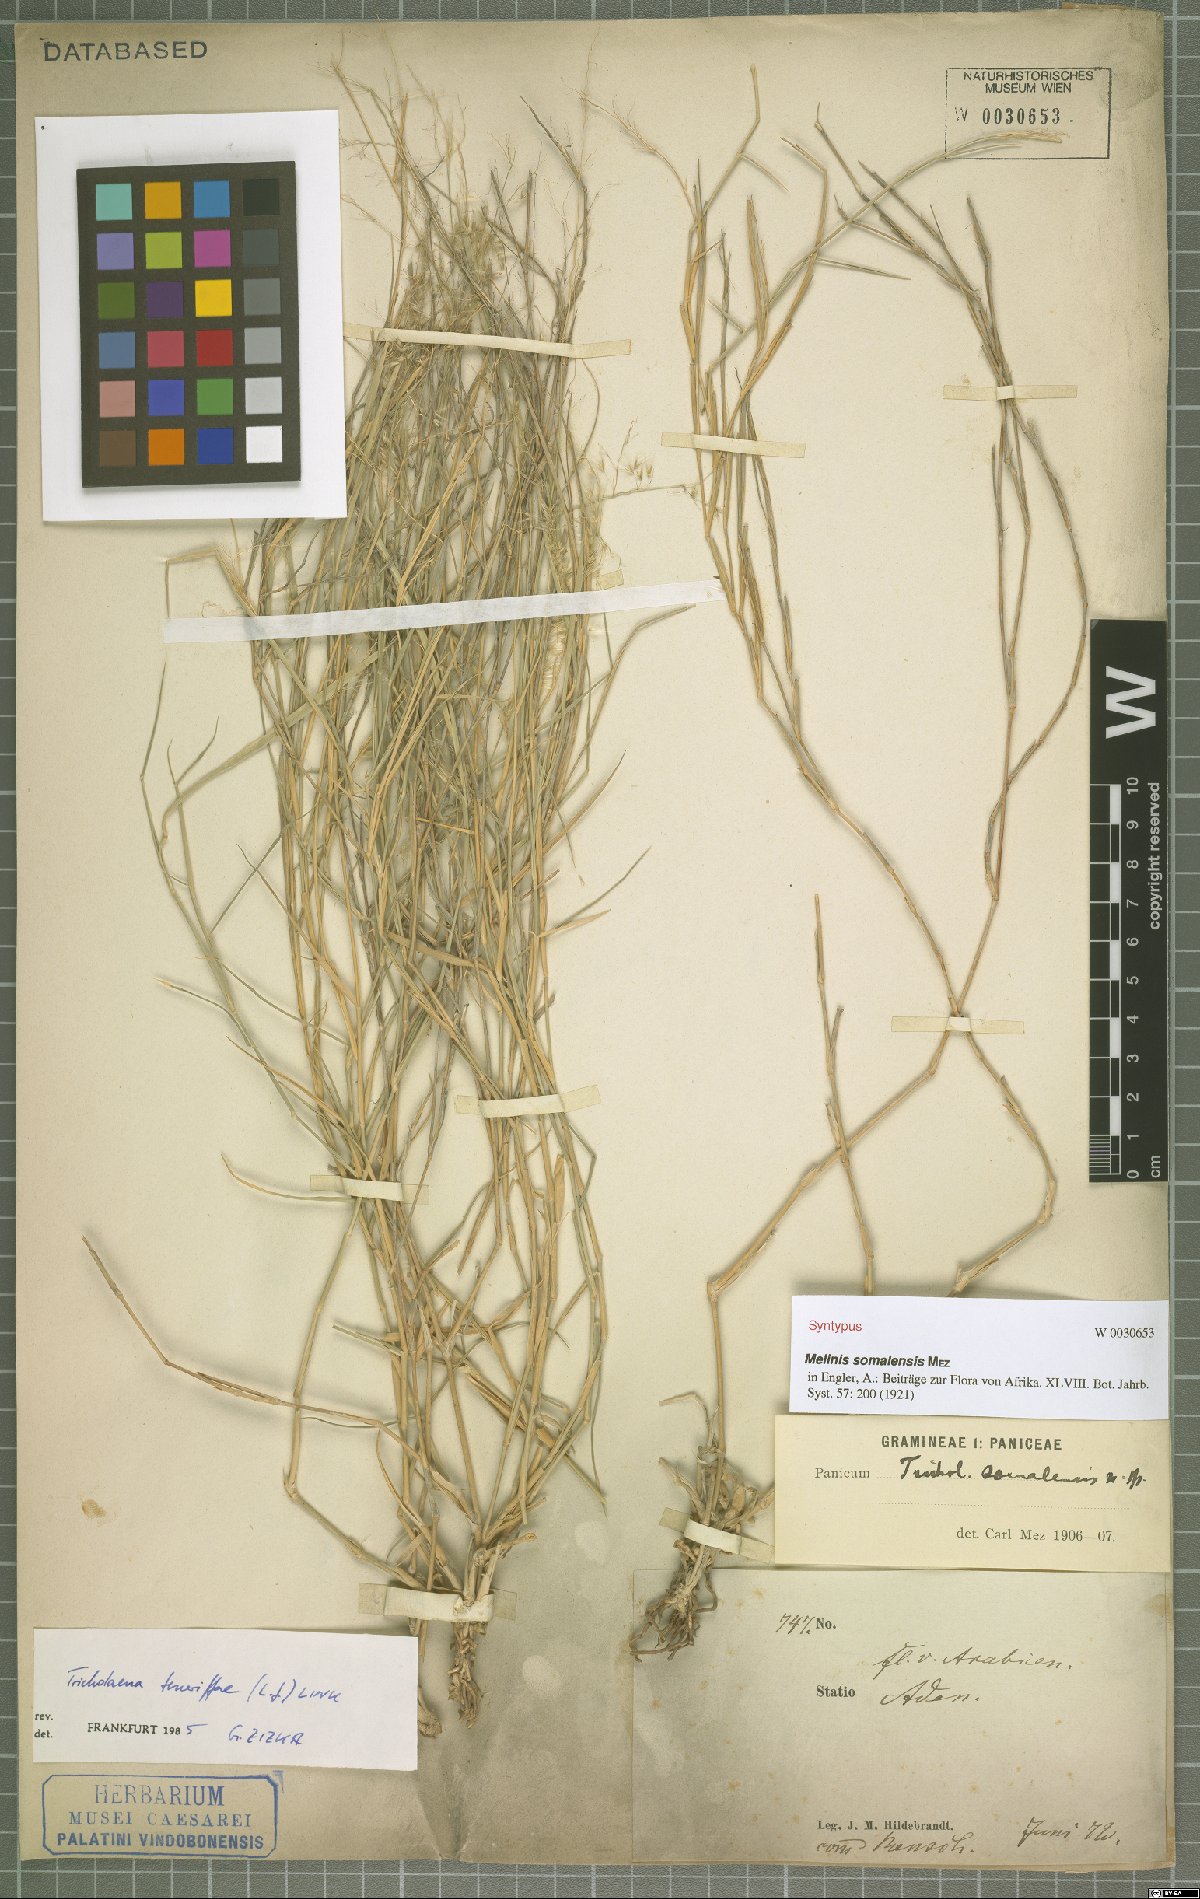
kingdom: Plantae
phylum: Tracheophyta
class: Liliopsida
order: Poales
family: Poaceae
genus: Tricholaena
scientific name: Tricholaena teneriffae
